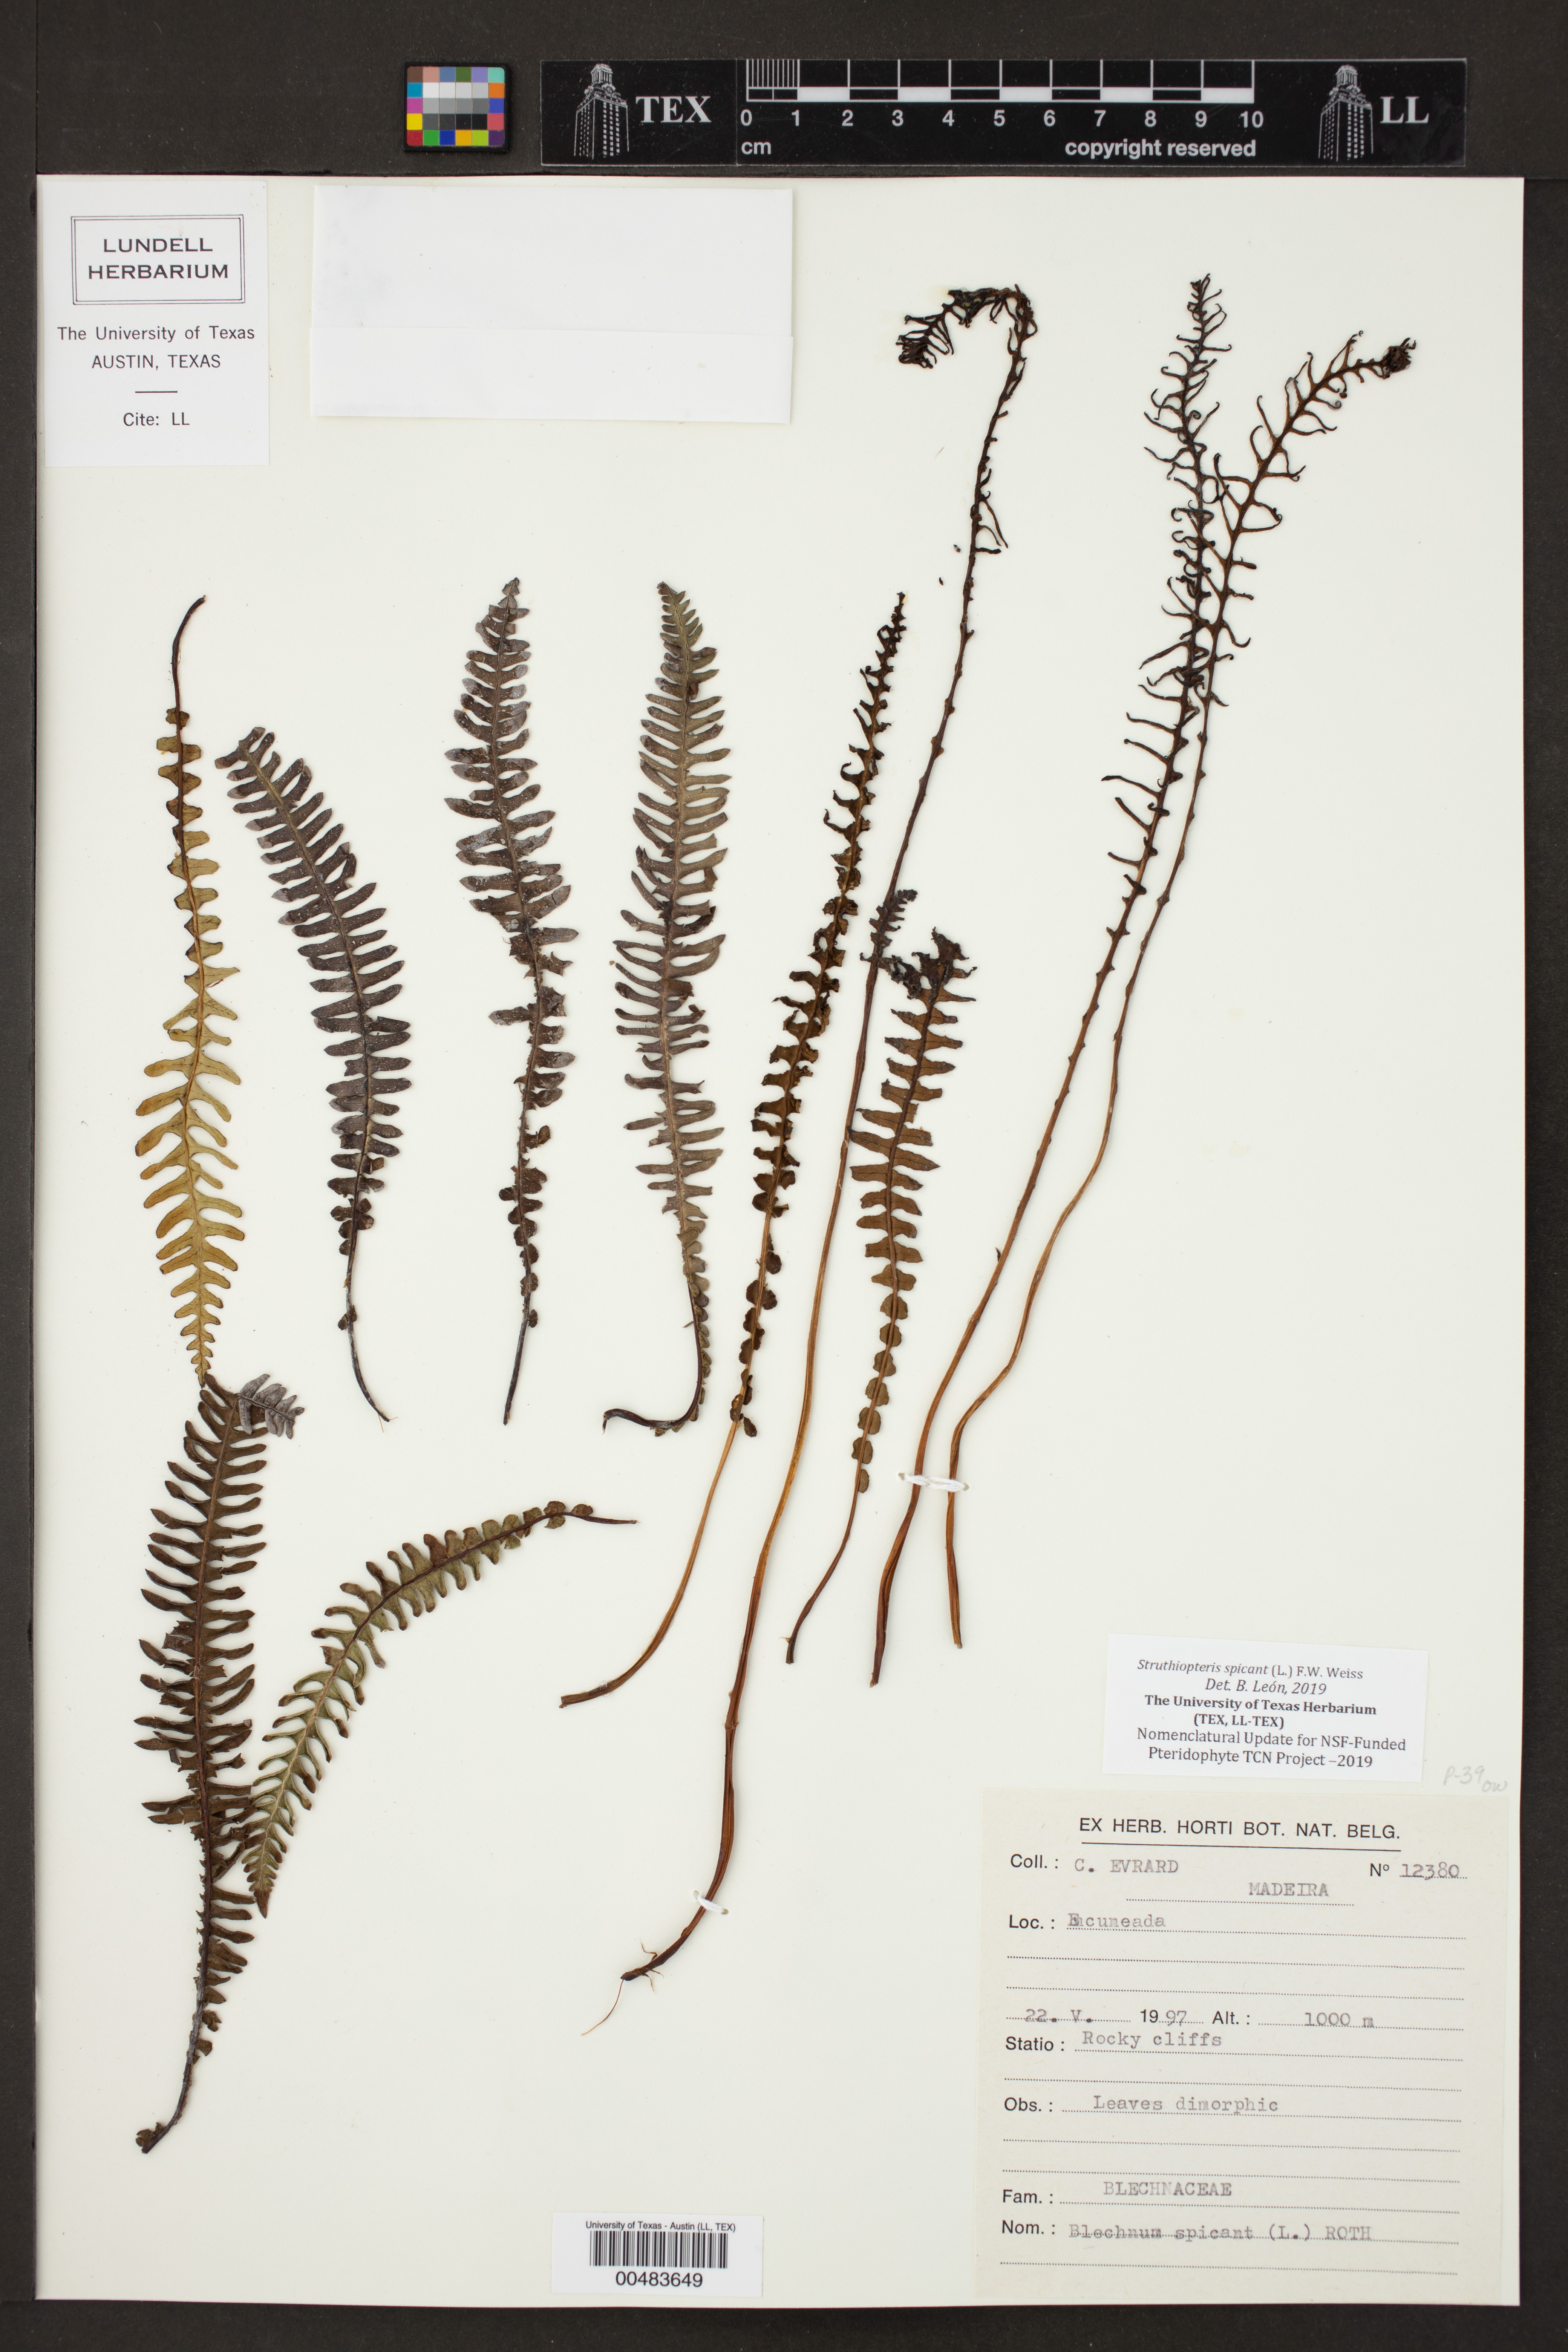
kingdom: Plantae
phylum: Tracheophyta
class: Polypodiopsida
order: Polypodiales
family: Blechnaceae
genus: Struthiopteris
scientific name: Struthiopteris spicant
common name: Deer fern
